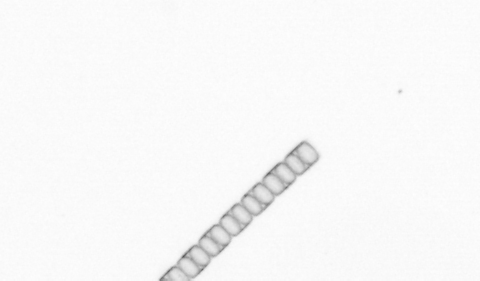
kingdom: Chromista
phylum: Ochrophyta
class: Bacillariophyceae
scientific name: Bacillariophyceae
